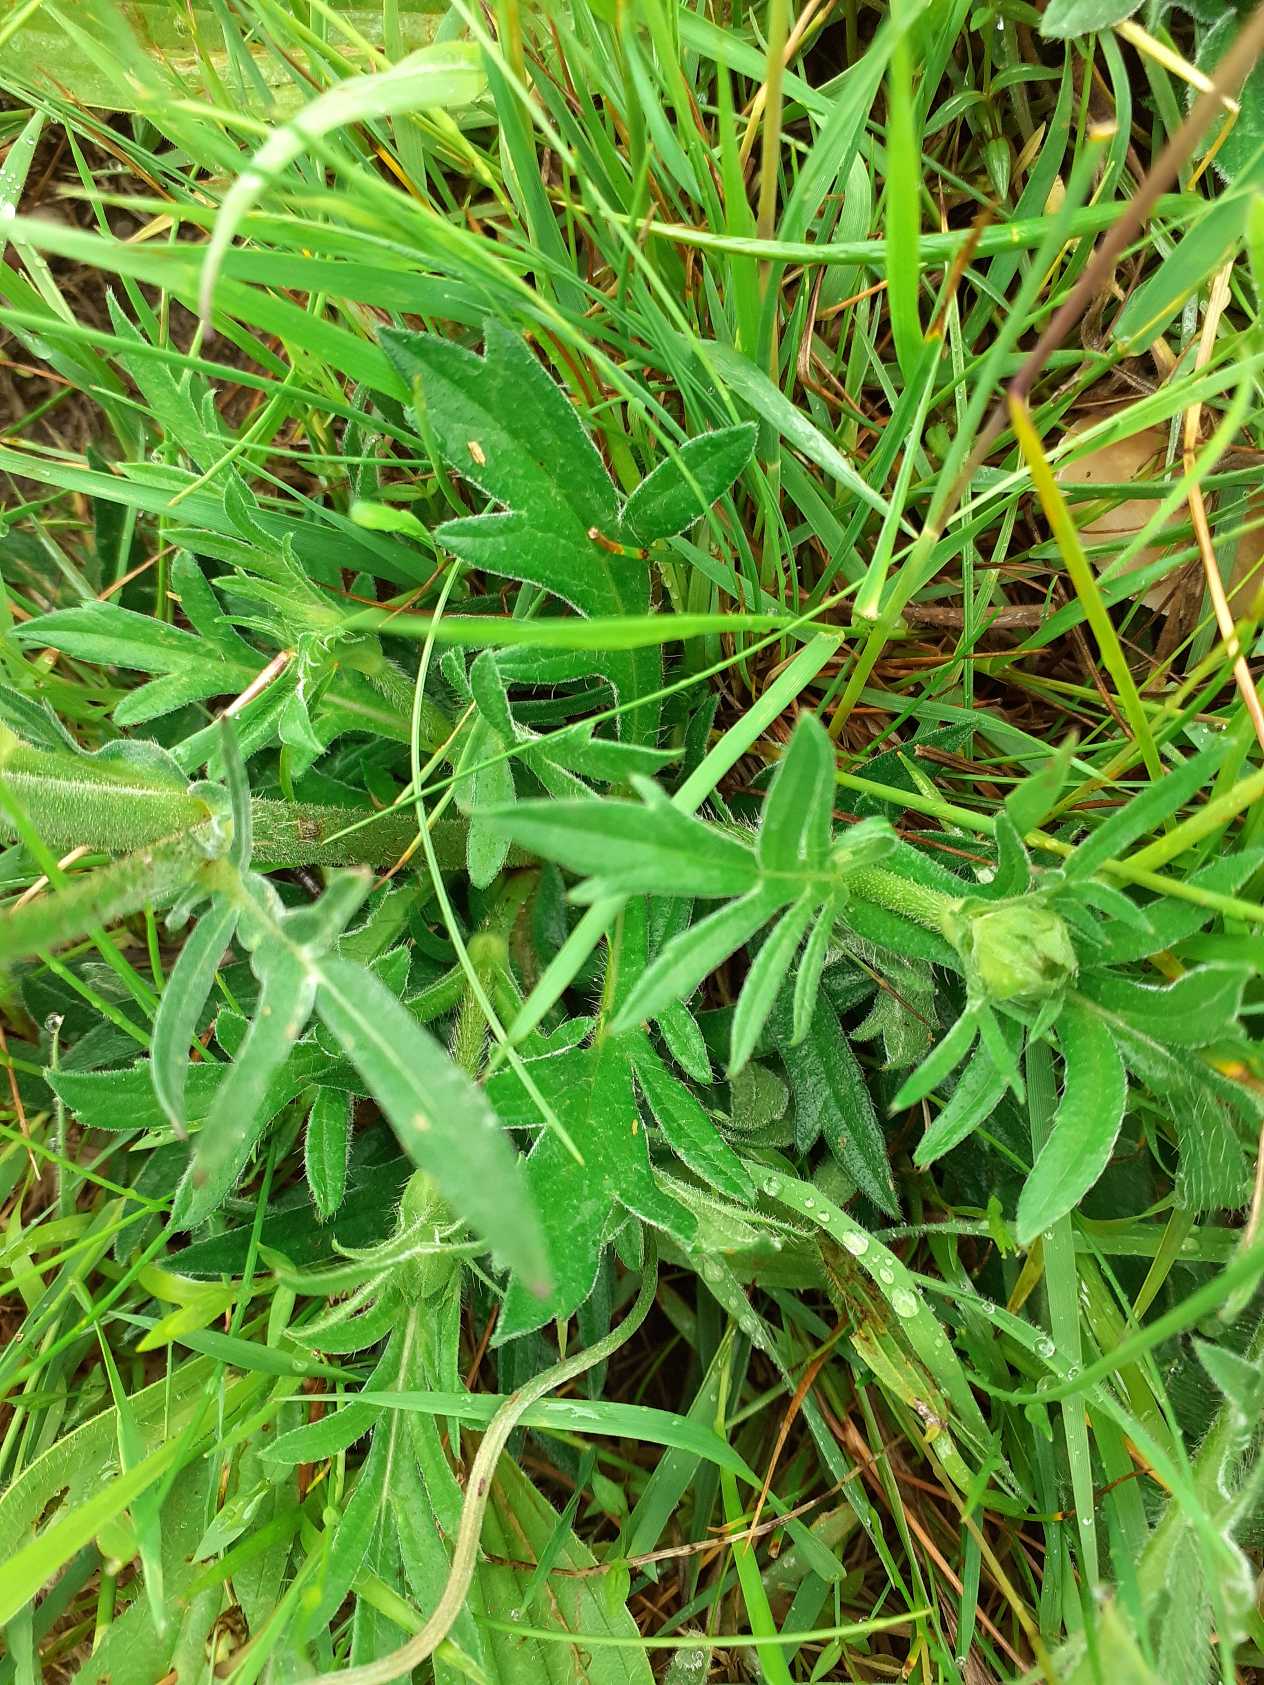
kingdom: Plantae
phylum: Tracheophyta
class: Magnoliopsida
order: Dipsacales
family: Caprifoliaceae
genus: Knautia
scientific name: Knautia arvensis
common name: Blåhat
